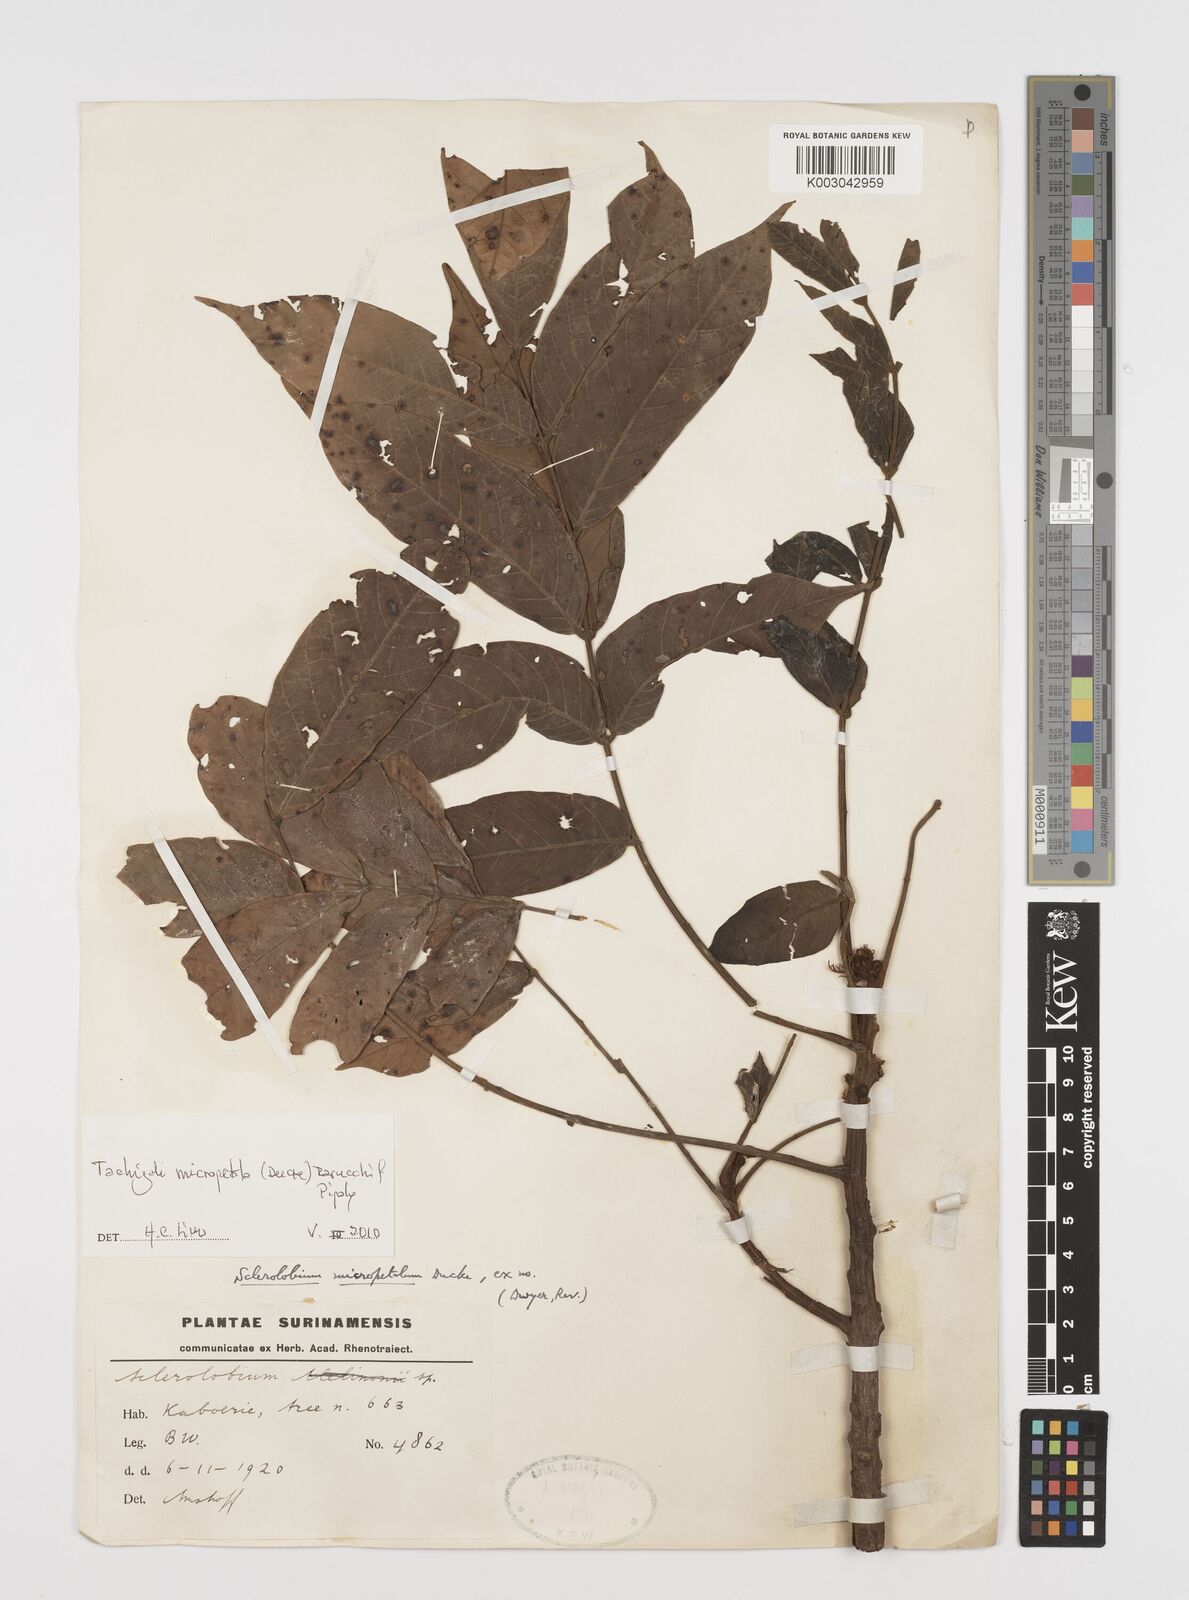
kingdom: Plantae
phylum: Tracheophyta
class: Magnoliopsida
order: Fabales
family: Fabaceae
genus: Tachigali
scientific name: Tachigali micropetala
